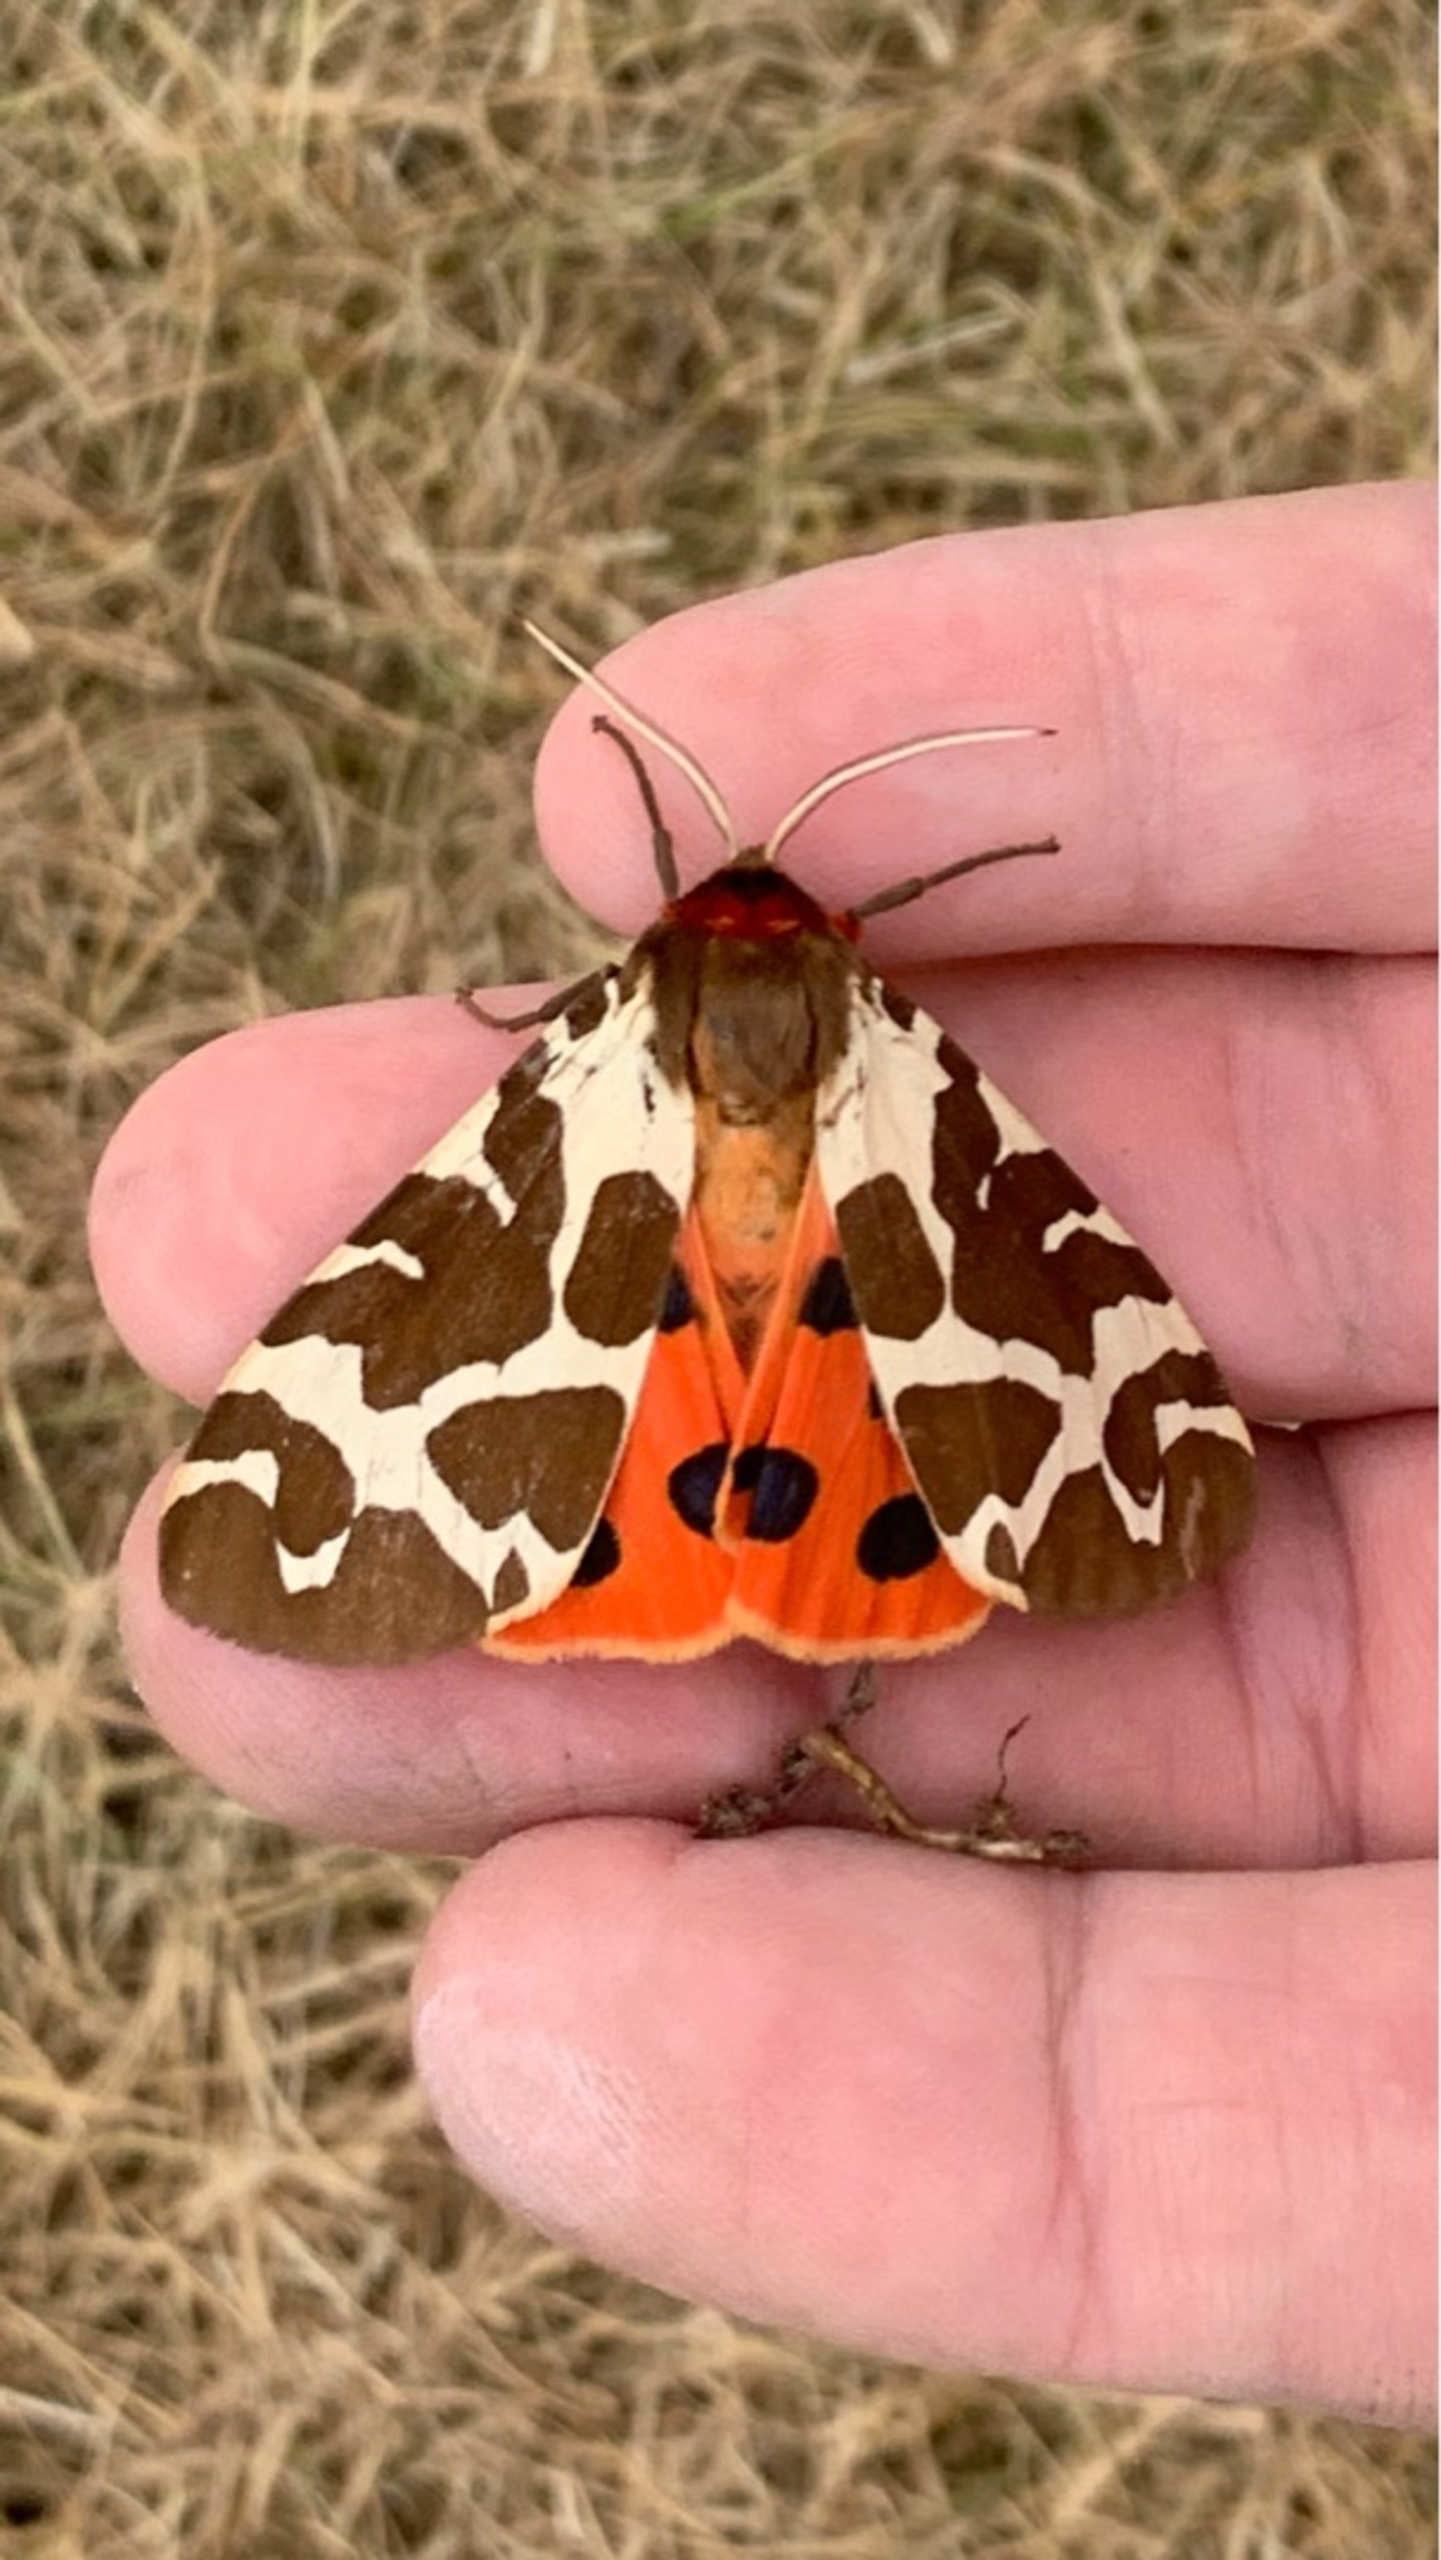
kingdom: Animalia
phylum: Arthropoda
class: Insecta
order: Lepidoptera
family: Erebidae
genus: Arctia
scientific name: Arctia caja
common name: Brun bjørn
